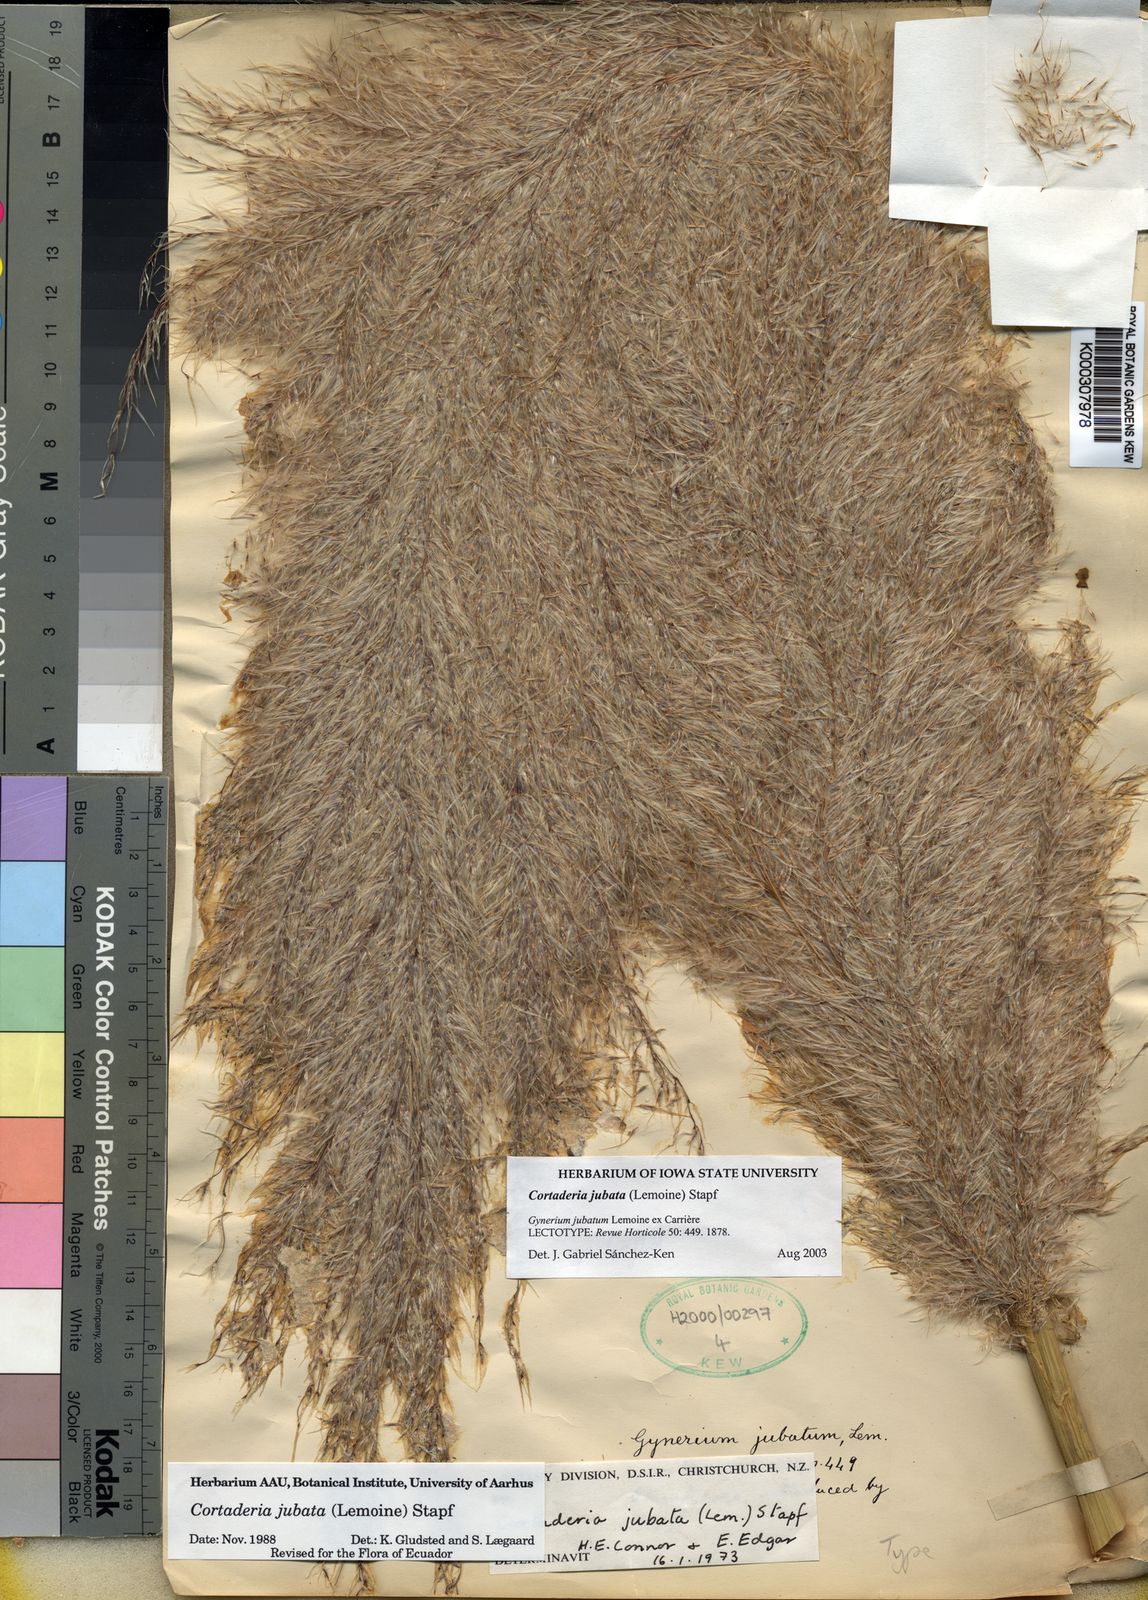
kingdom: Plantae
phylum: Tracheophyta
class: Liliopsida
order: Poales
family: Poaceae
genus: Cortaderia
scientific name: Cortaderia jubata
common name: Purple pampas grass
